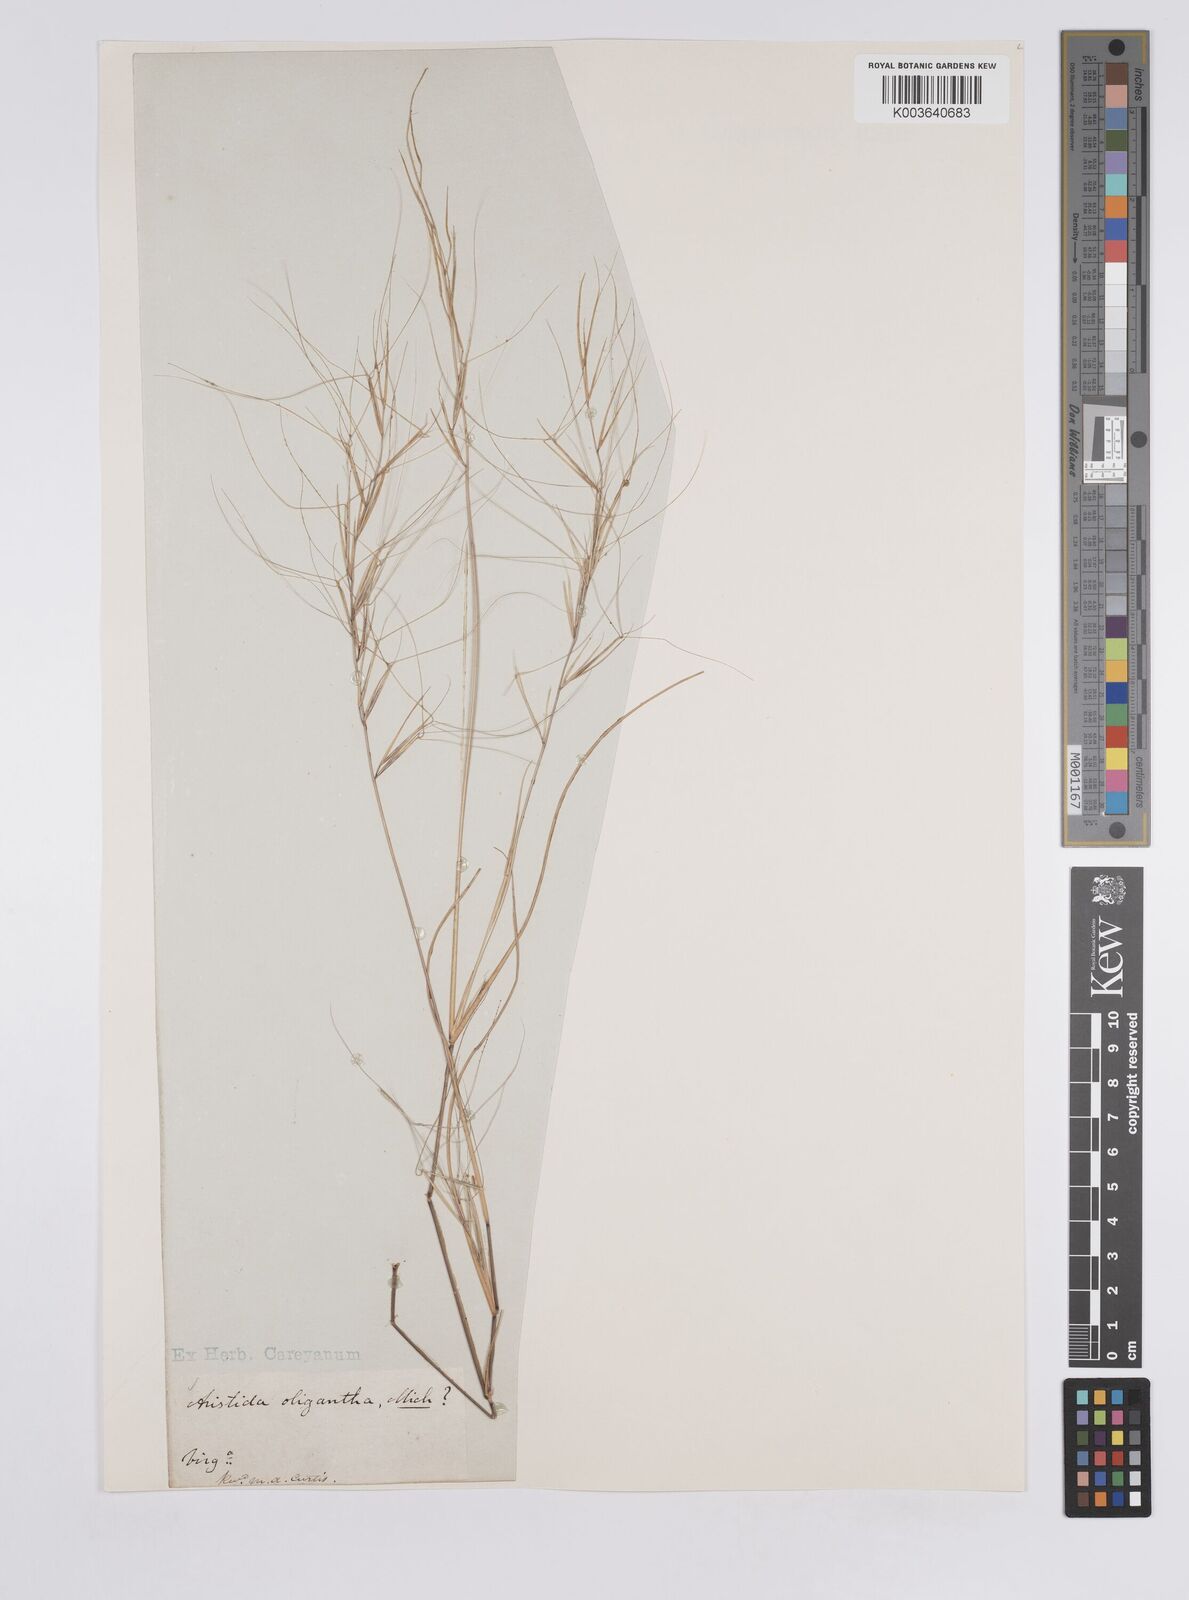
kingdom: Plantae
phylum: Tracheophyta
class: Liliopsida
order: Poales
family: Poaceae
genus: Aristida
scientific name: Aristida oligantha
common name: Few-flowered aristida
